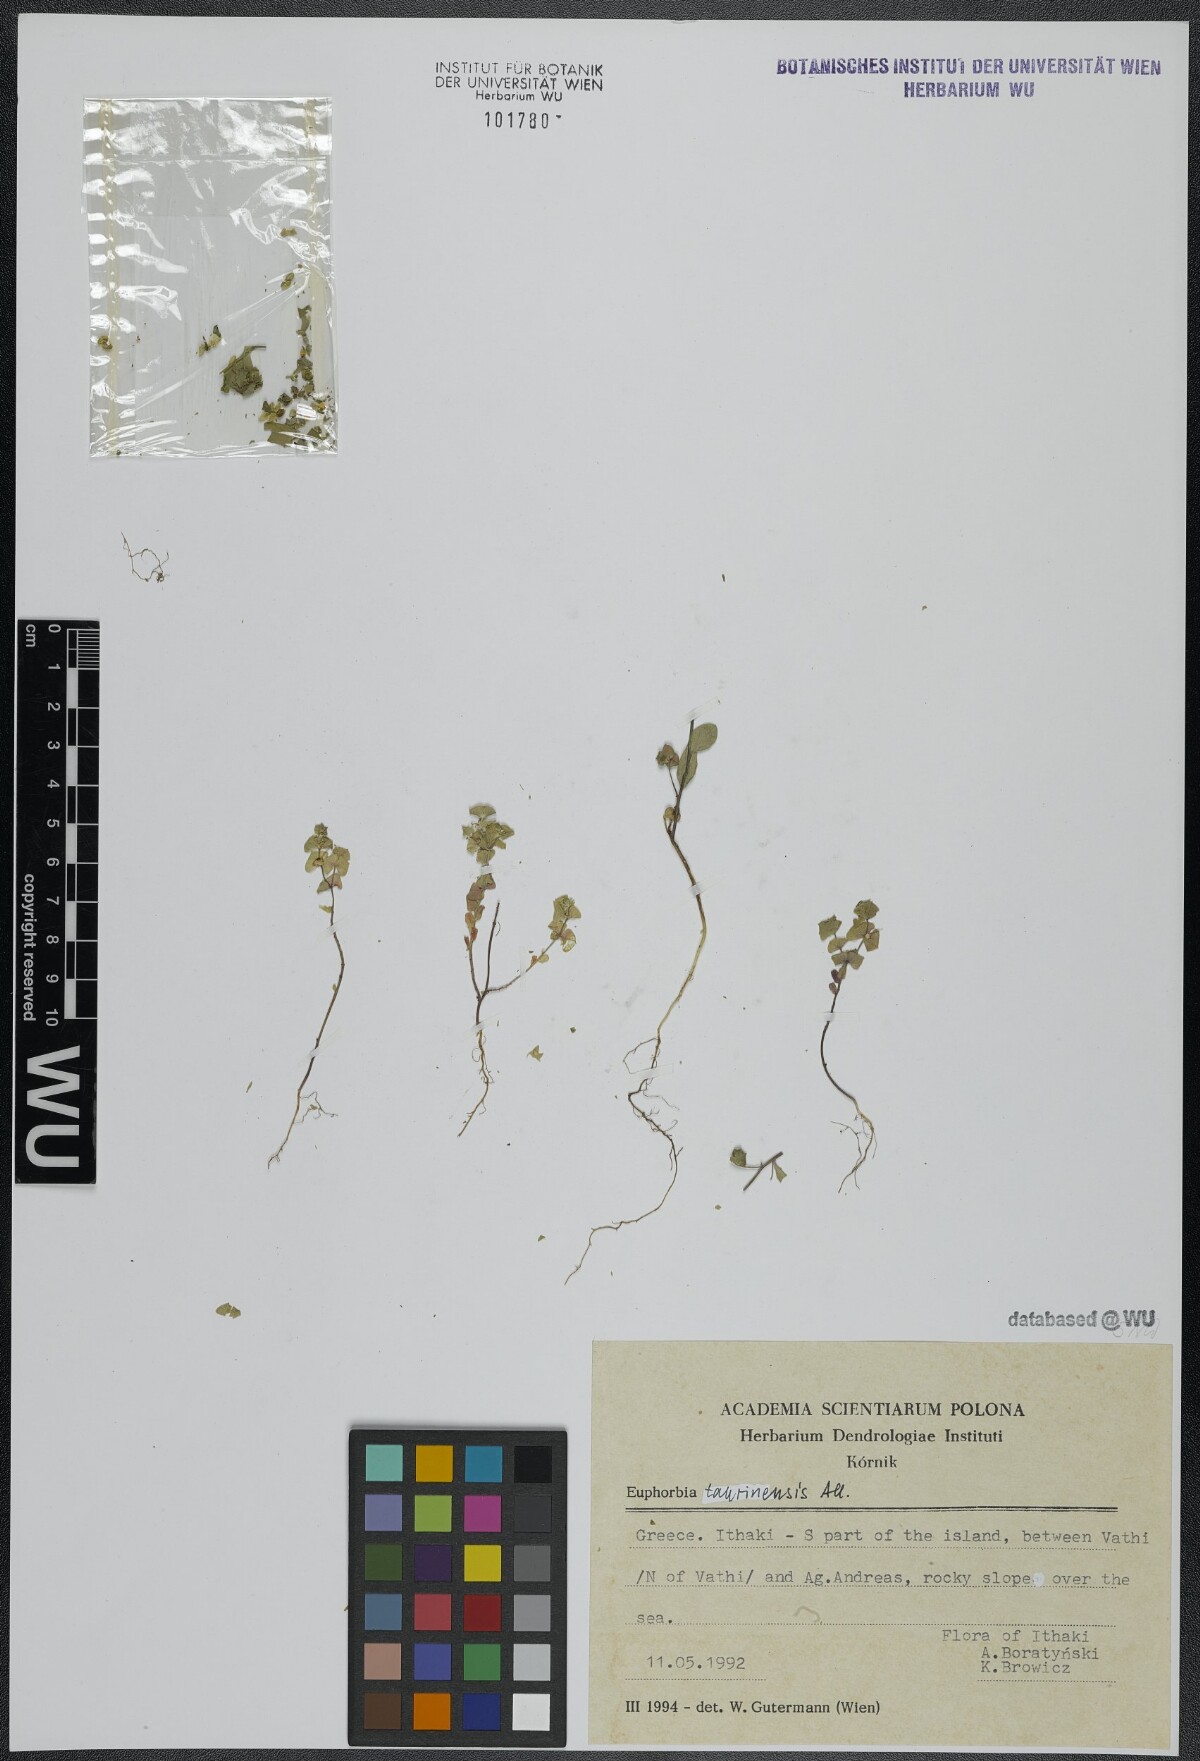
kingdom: Plantae
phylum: Tracheophyta
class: Magnoliopsida
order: Malpighiales
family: Euphorbiaceae
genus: Euphorbia
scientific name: Euphorbia taurinensis
